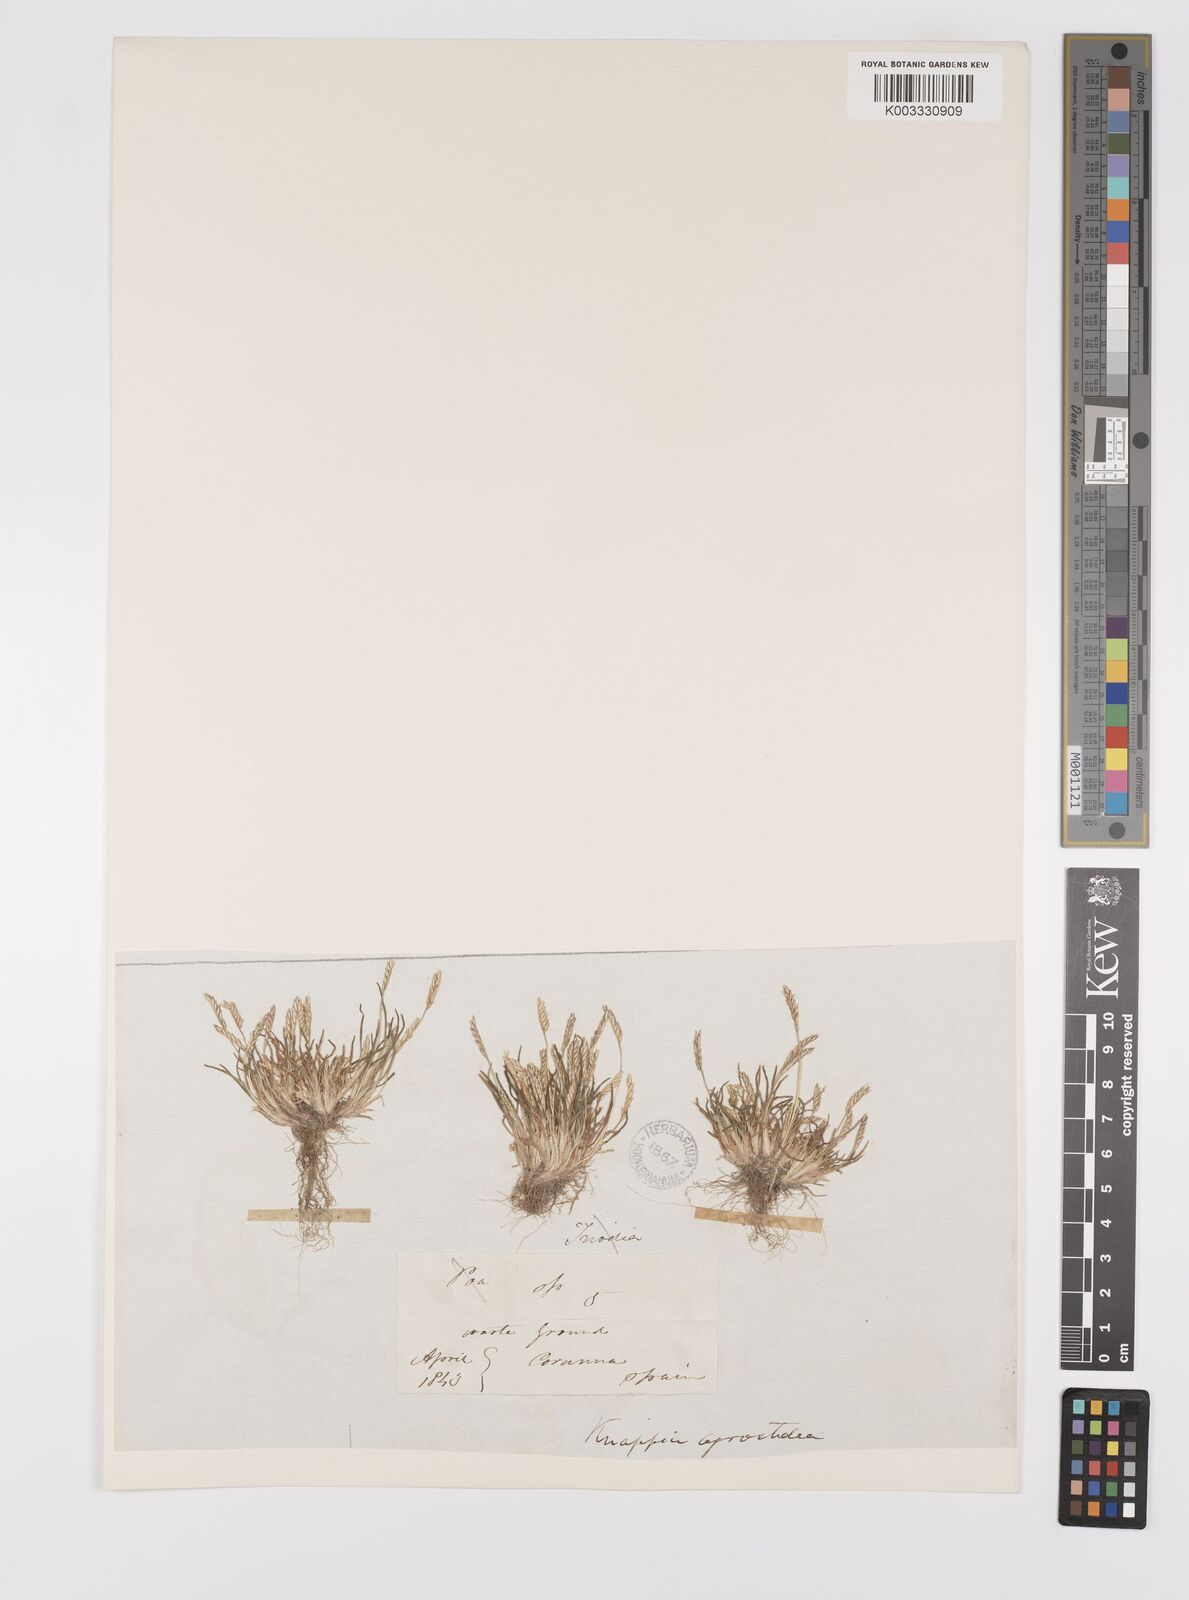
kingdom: Plantae
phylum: Tracheophyta
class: Liliopsida
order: Poales
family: Poaceae
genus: Mibora
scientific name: Mibora minima
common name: Early sand-grass
